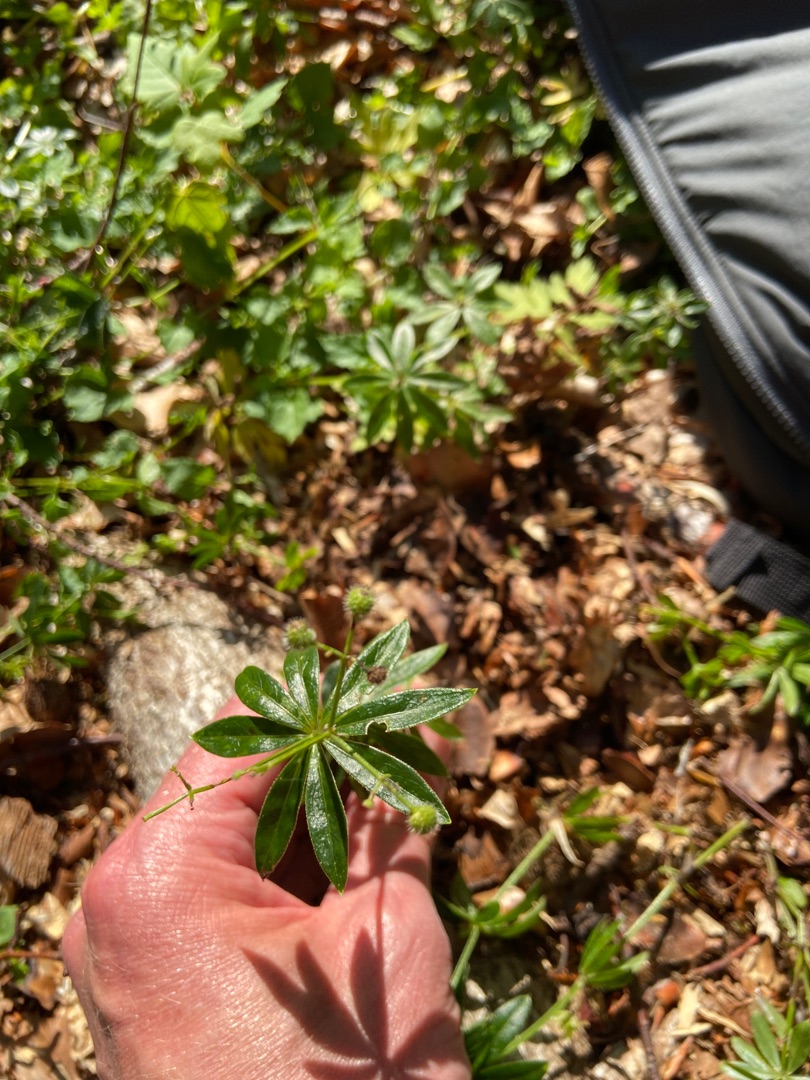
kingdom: Plantae
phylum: Tracheophyta
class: Magnoliopsida
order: Gentianales
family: Rubiaceae
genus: Galium
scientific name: Galium odoratum
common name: Skovmærke
